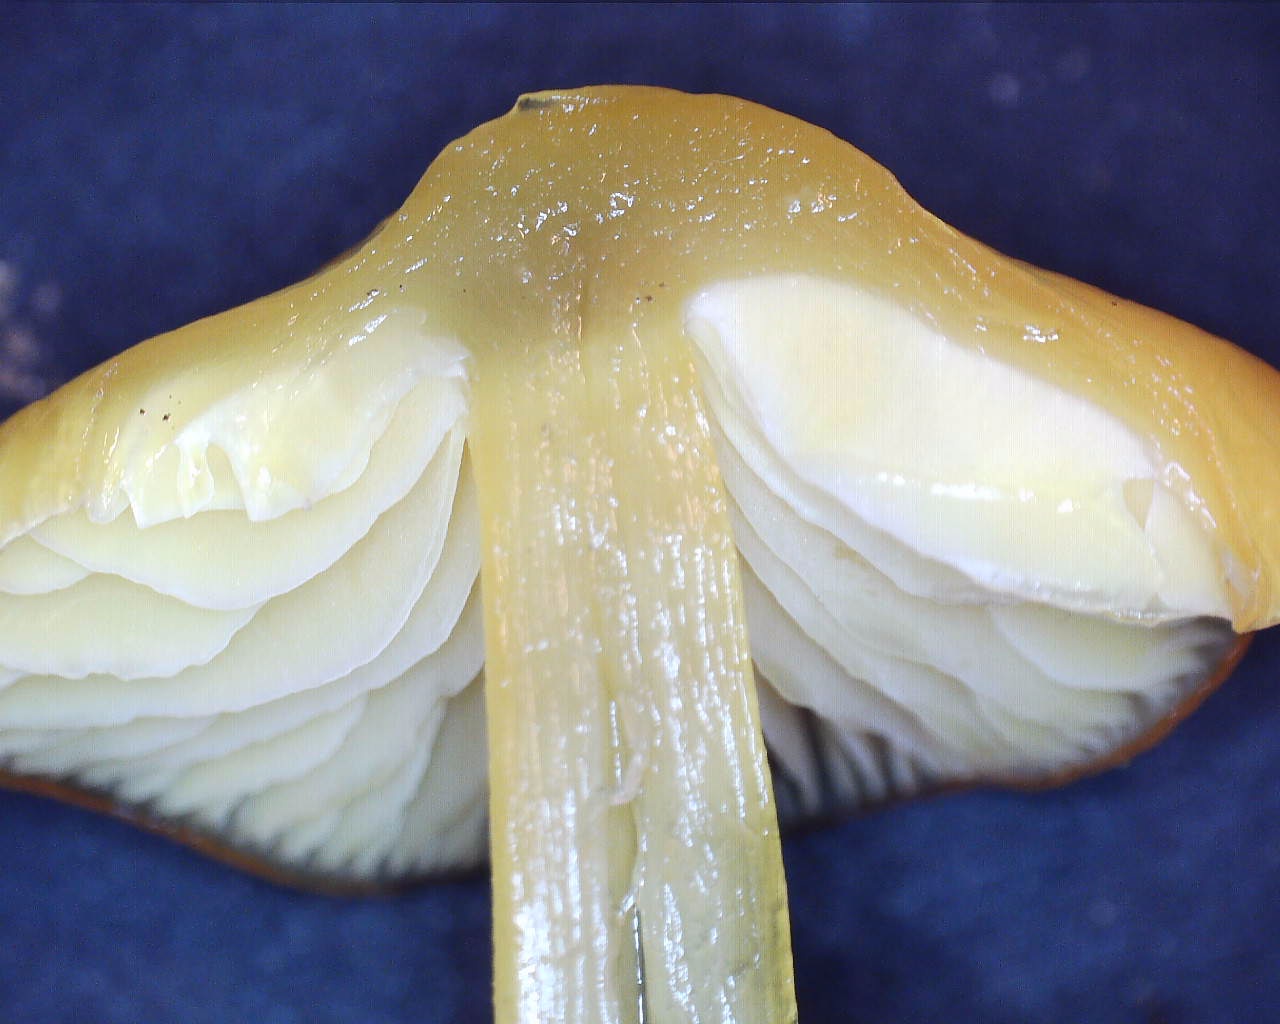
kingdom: Fungi
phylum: Basidiomycota
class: Agaricomycetes
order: Agaricales
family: Hygrophoraceae
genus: Hygrocybe
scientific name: Hygrocybe chlorophana
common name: gul vokshat
